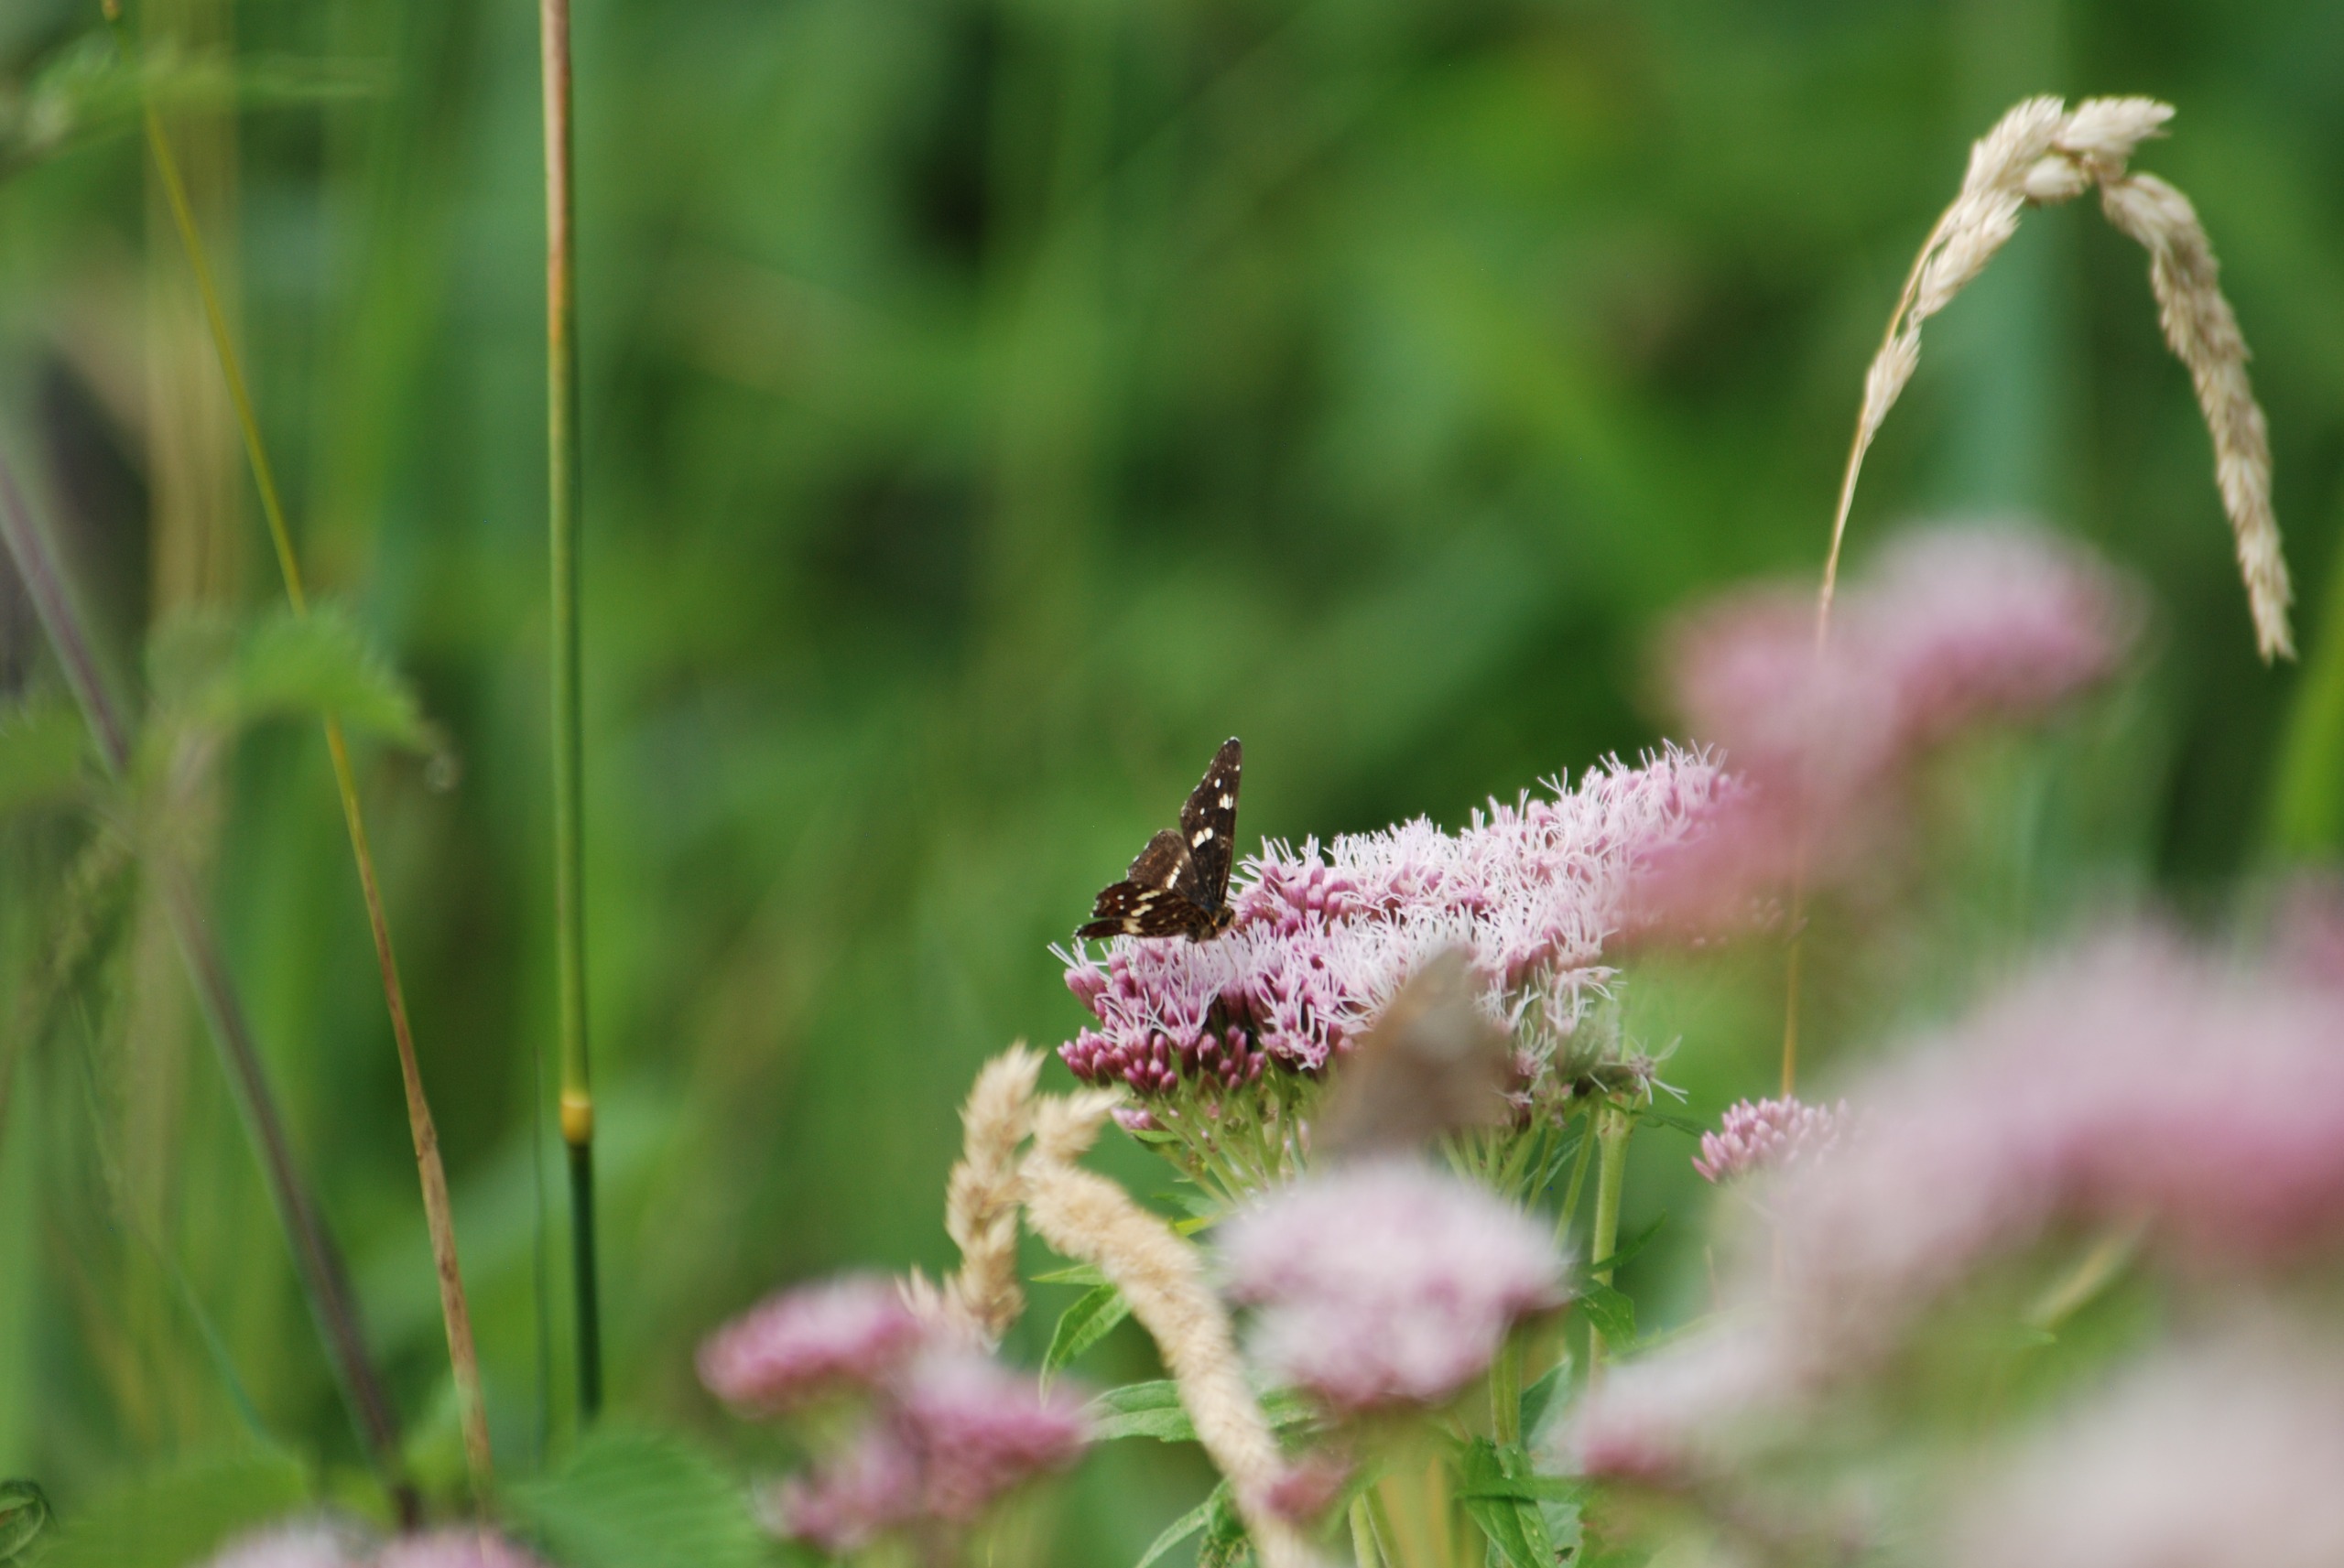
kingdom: Animalia
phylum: Arthropoda
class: Insecta
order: Lepidoptera
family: Nymphalidae
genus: Araschnia
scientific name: Araschnia levana
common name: Nældesommerfugl
